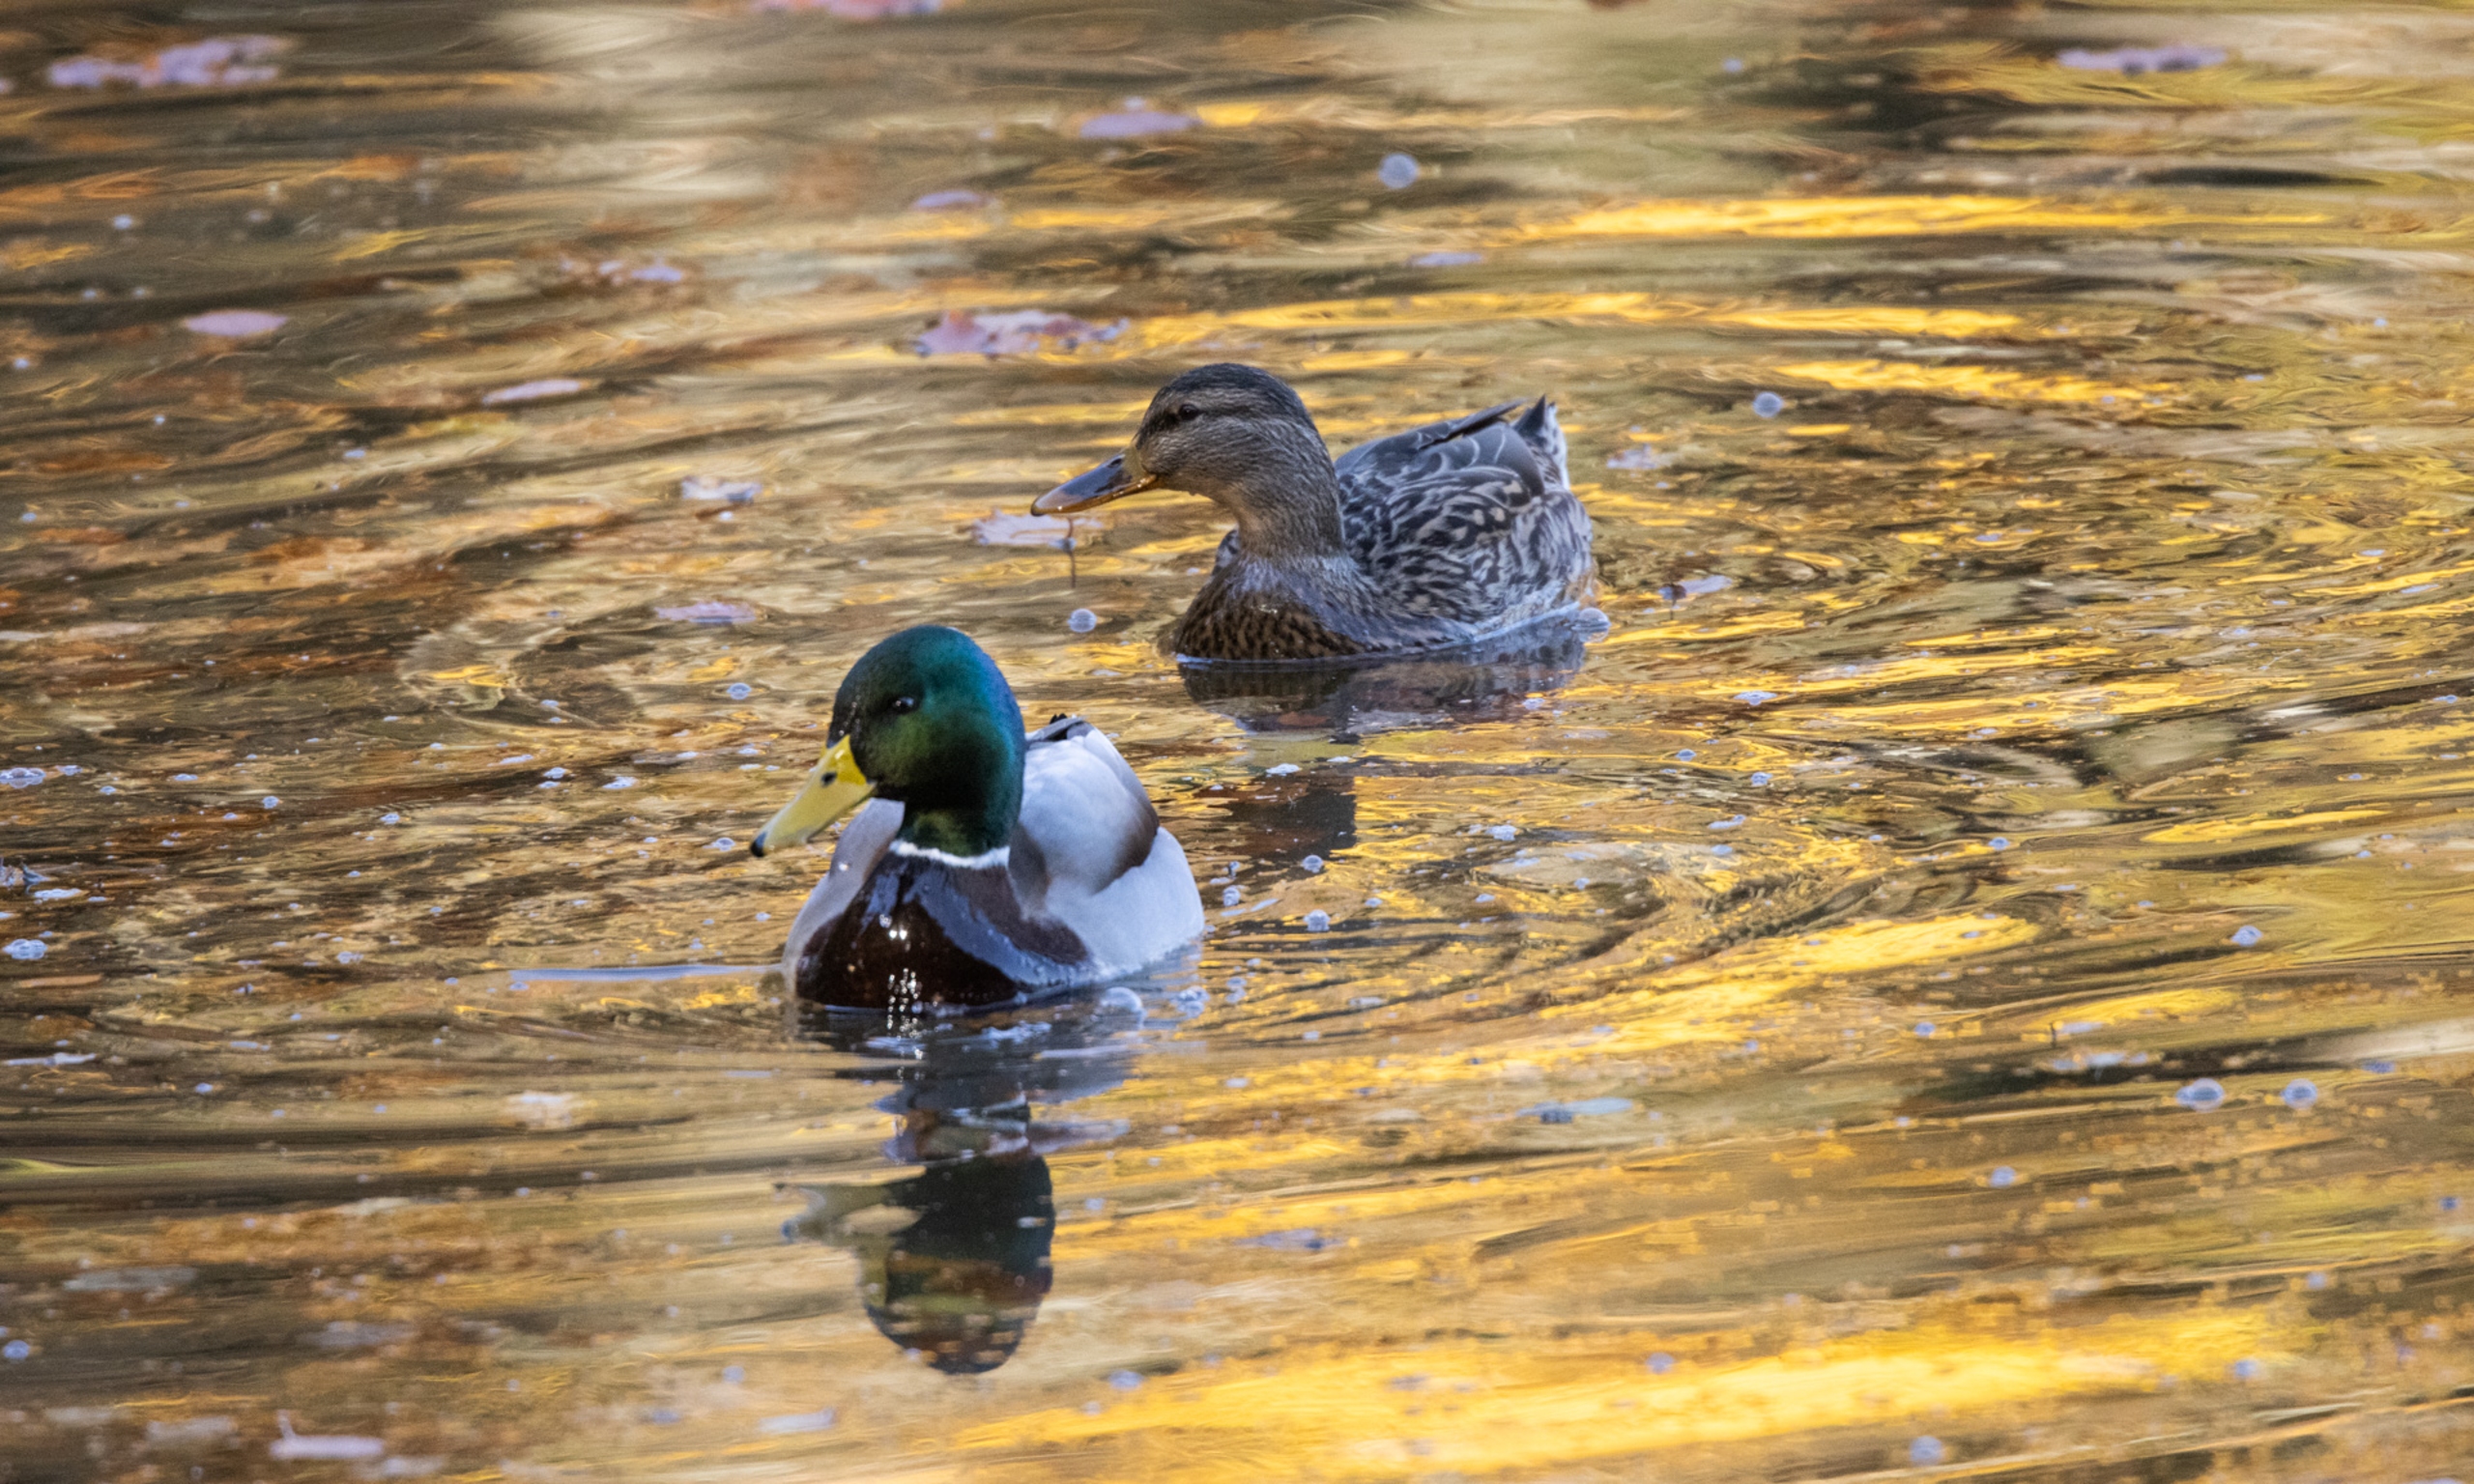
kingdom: Animalia
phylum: Chordata
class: Aves
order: Anseriformes
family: Anatidae
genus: Anas
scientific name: Anas platyrhynchos
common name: Gråand
